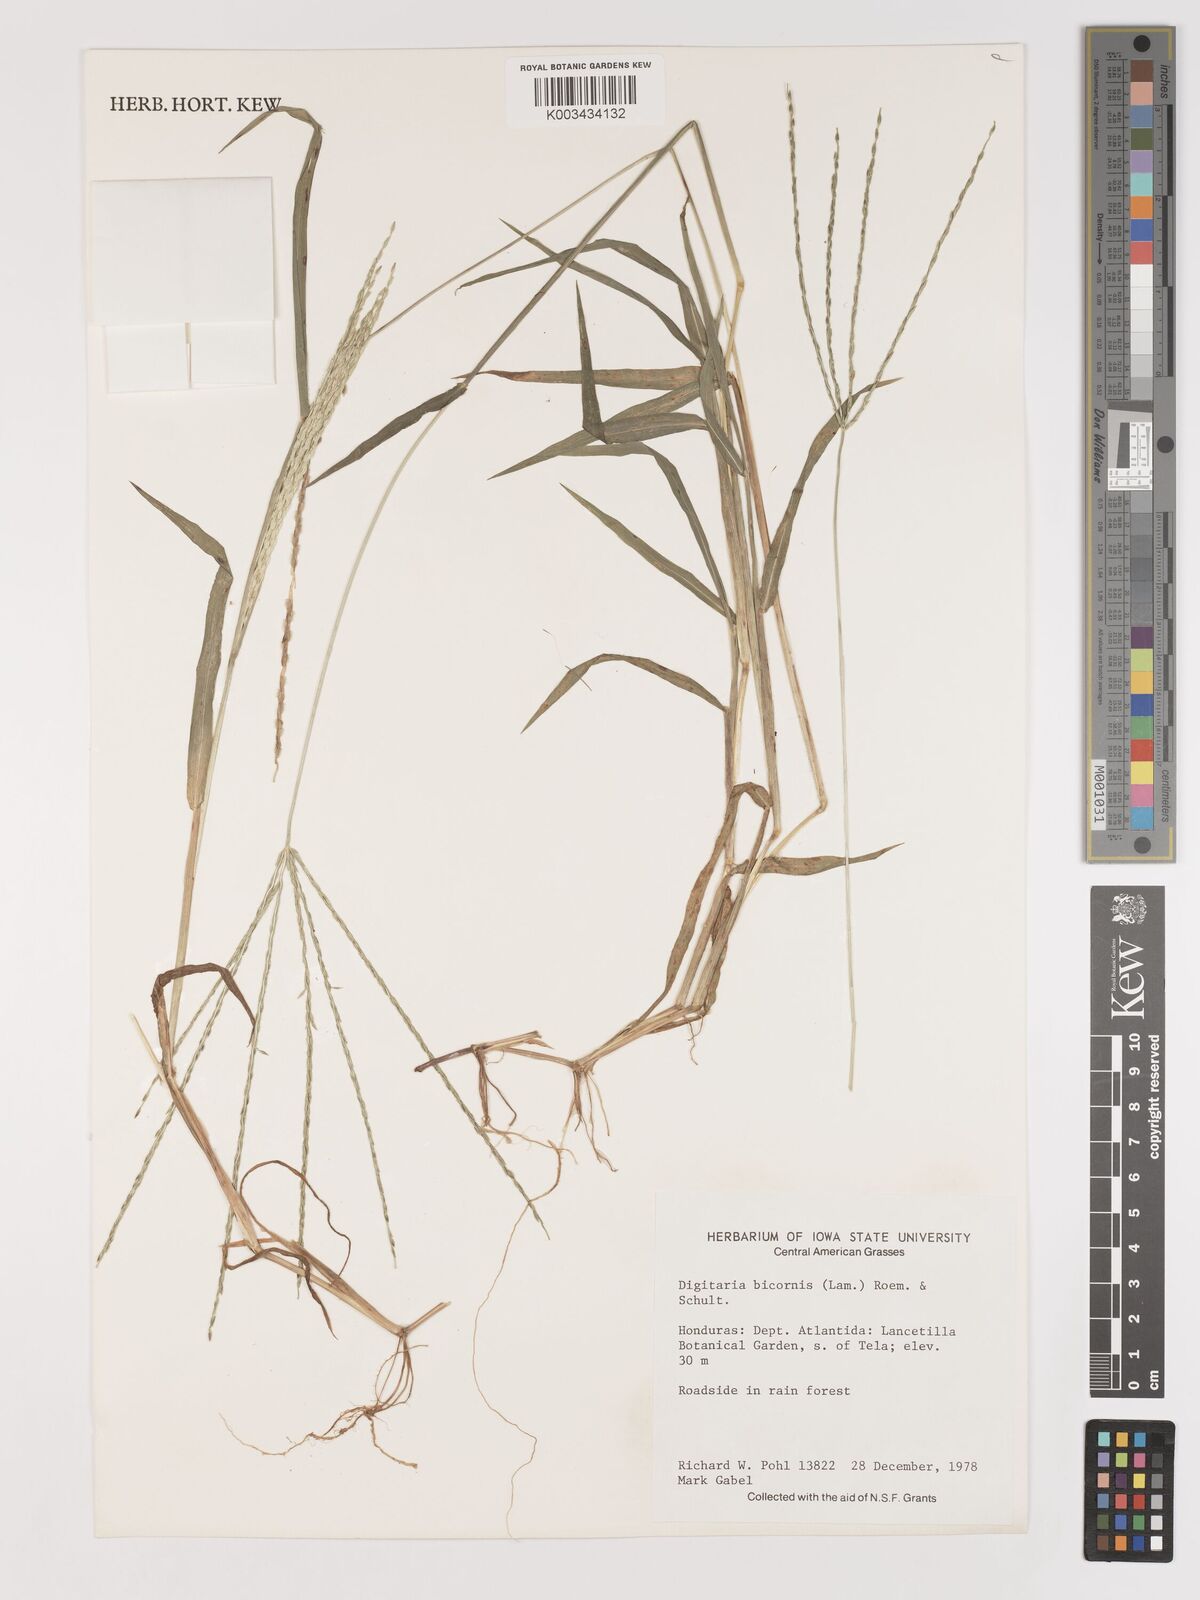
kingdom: Plantae
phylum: Tracheophyta
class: Liliopsida
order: Poales
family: Poaceae
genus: Digitaria
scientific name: Digitaria ciliaris
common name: Tropical finger-grass
